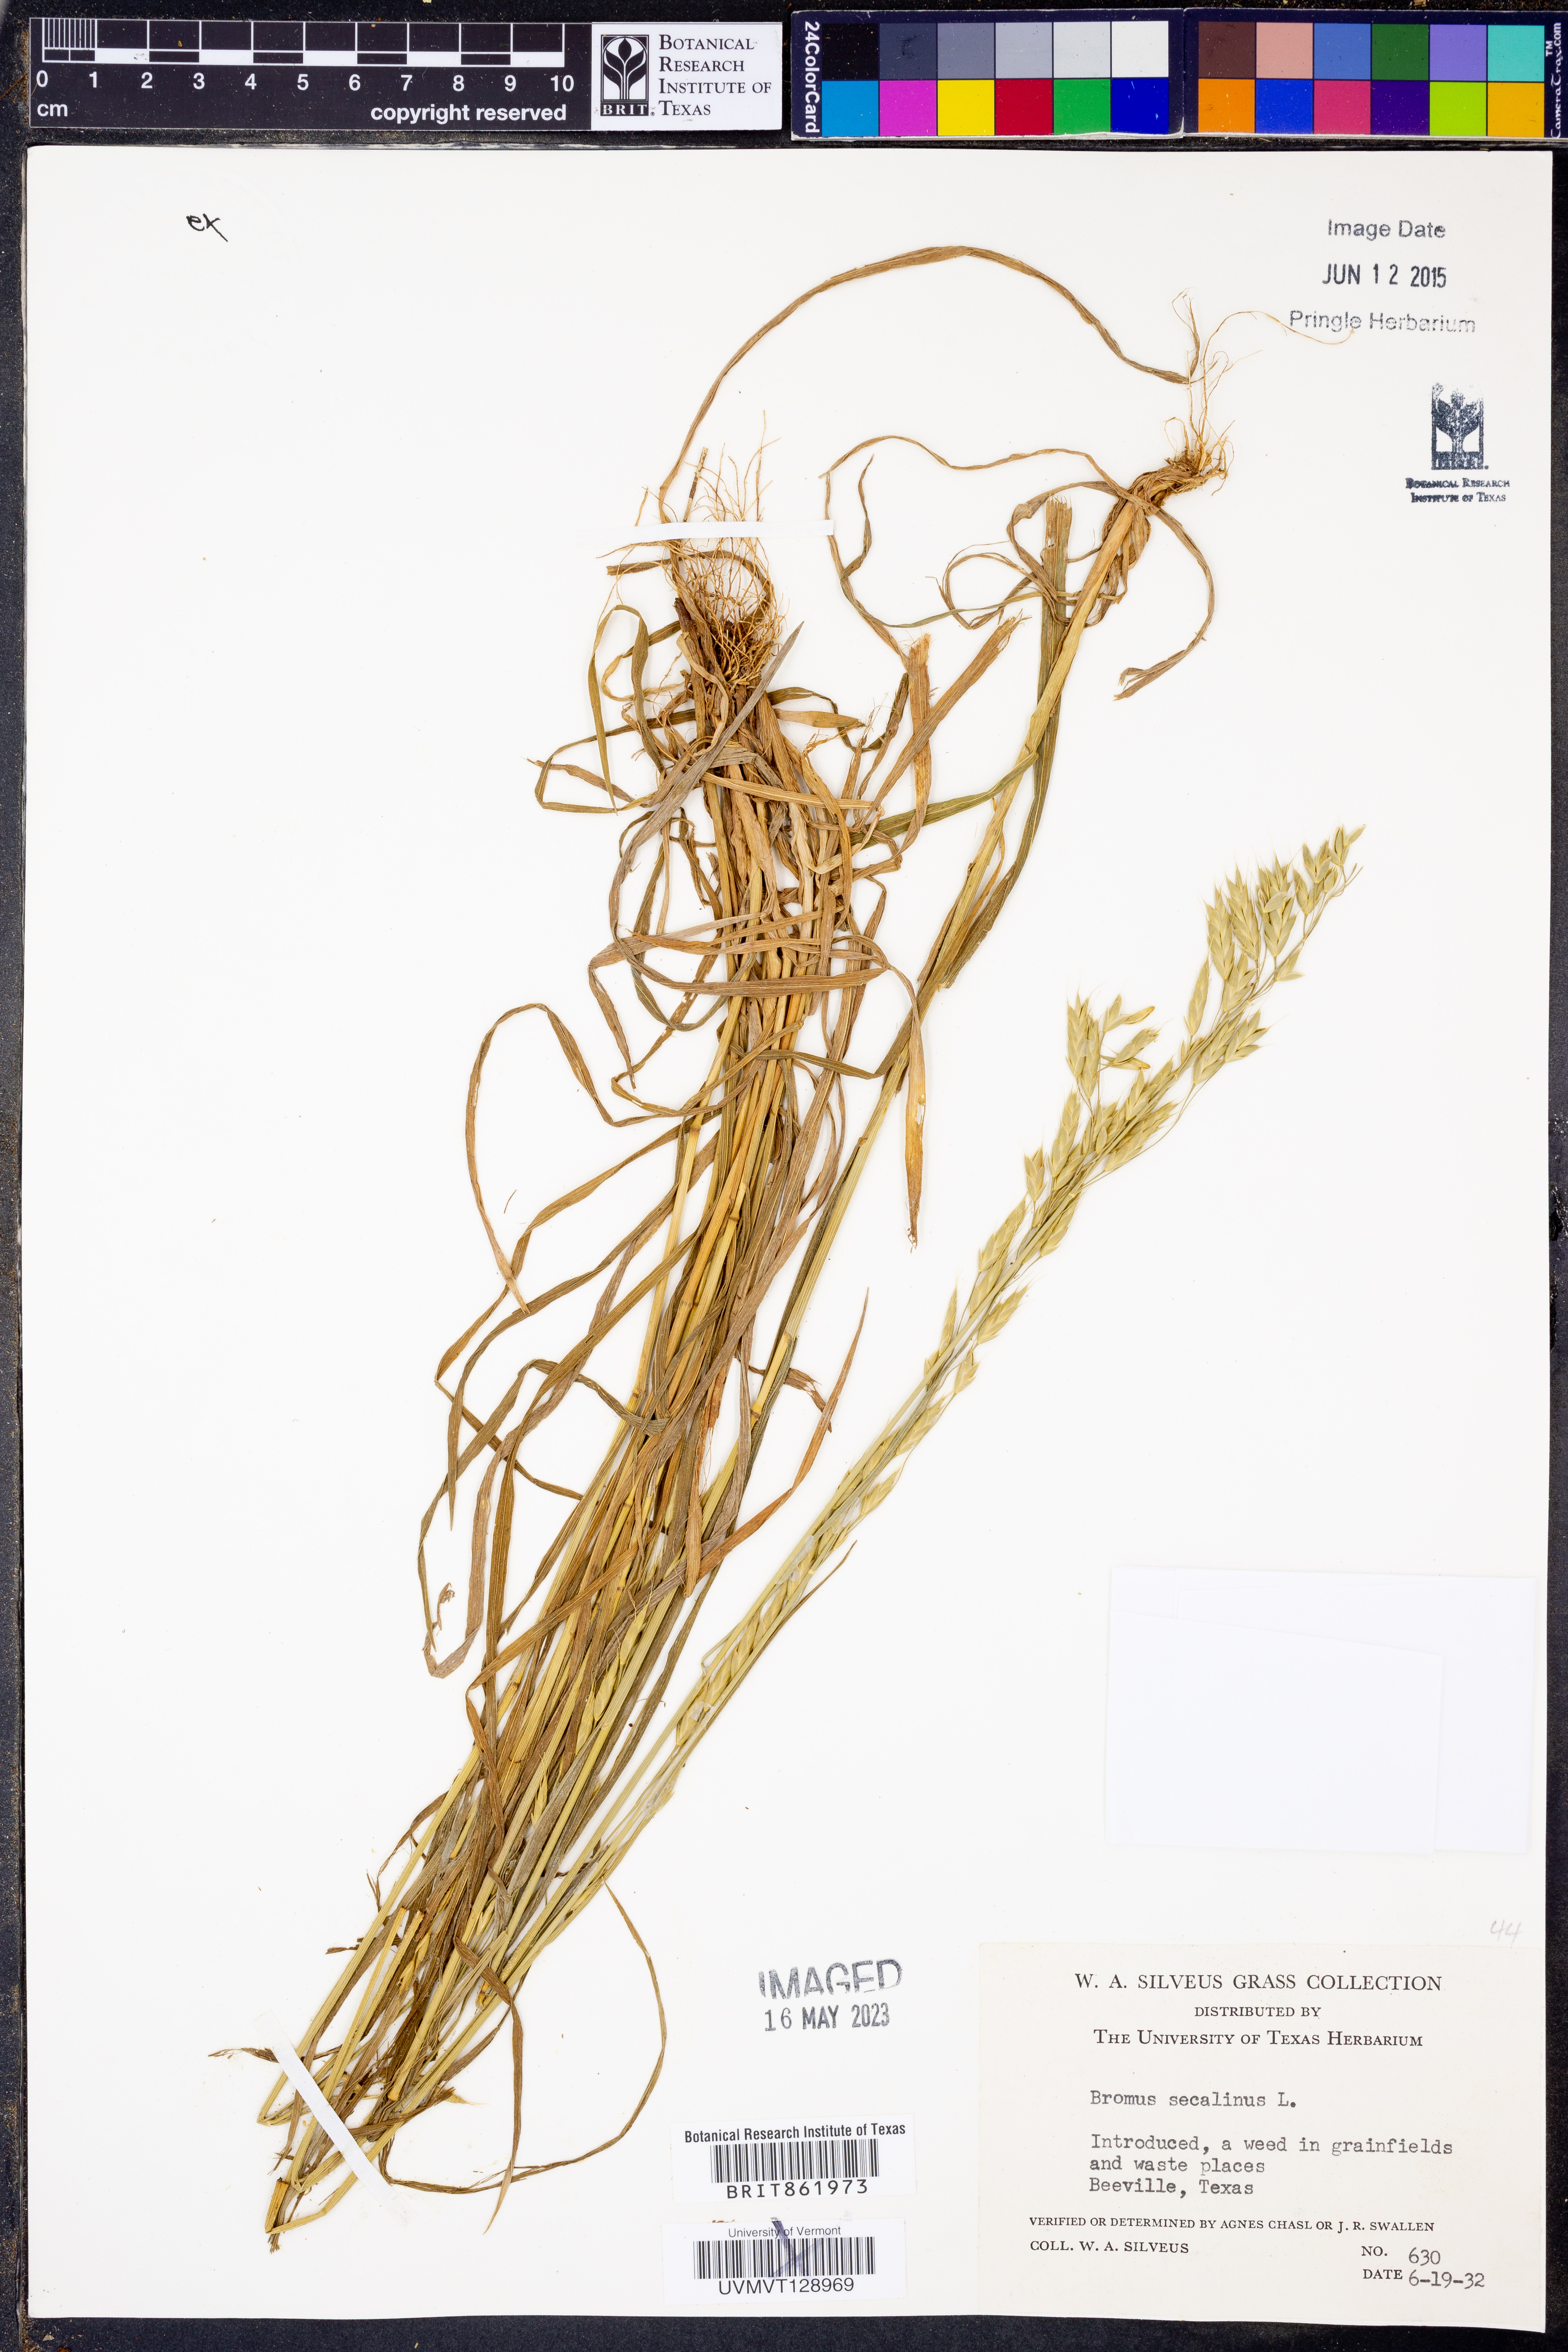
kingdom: Plantae
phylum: Tracheophyta
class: Liliopsida
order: Poales
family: Poaceae
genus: Bromus
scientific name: Bromus secalinus
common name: Rye brome
